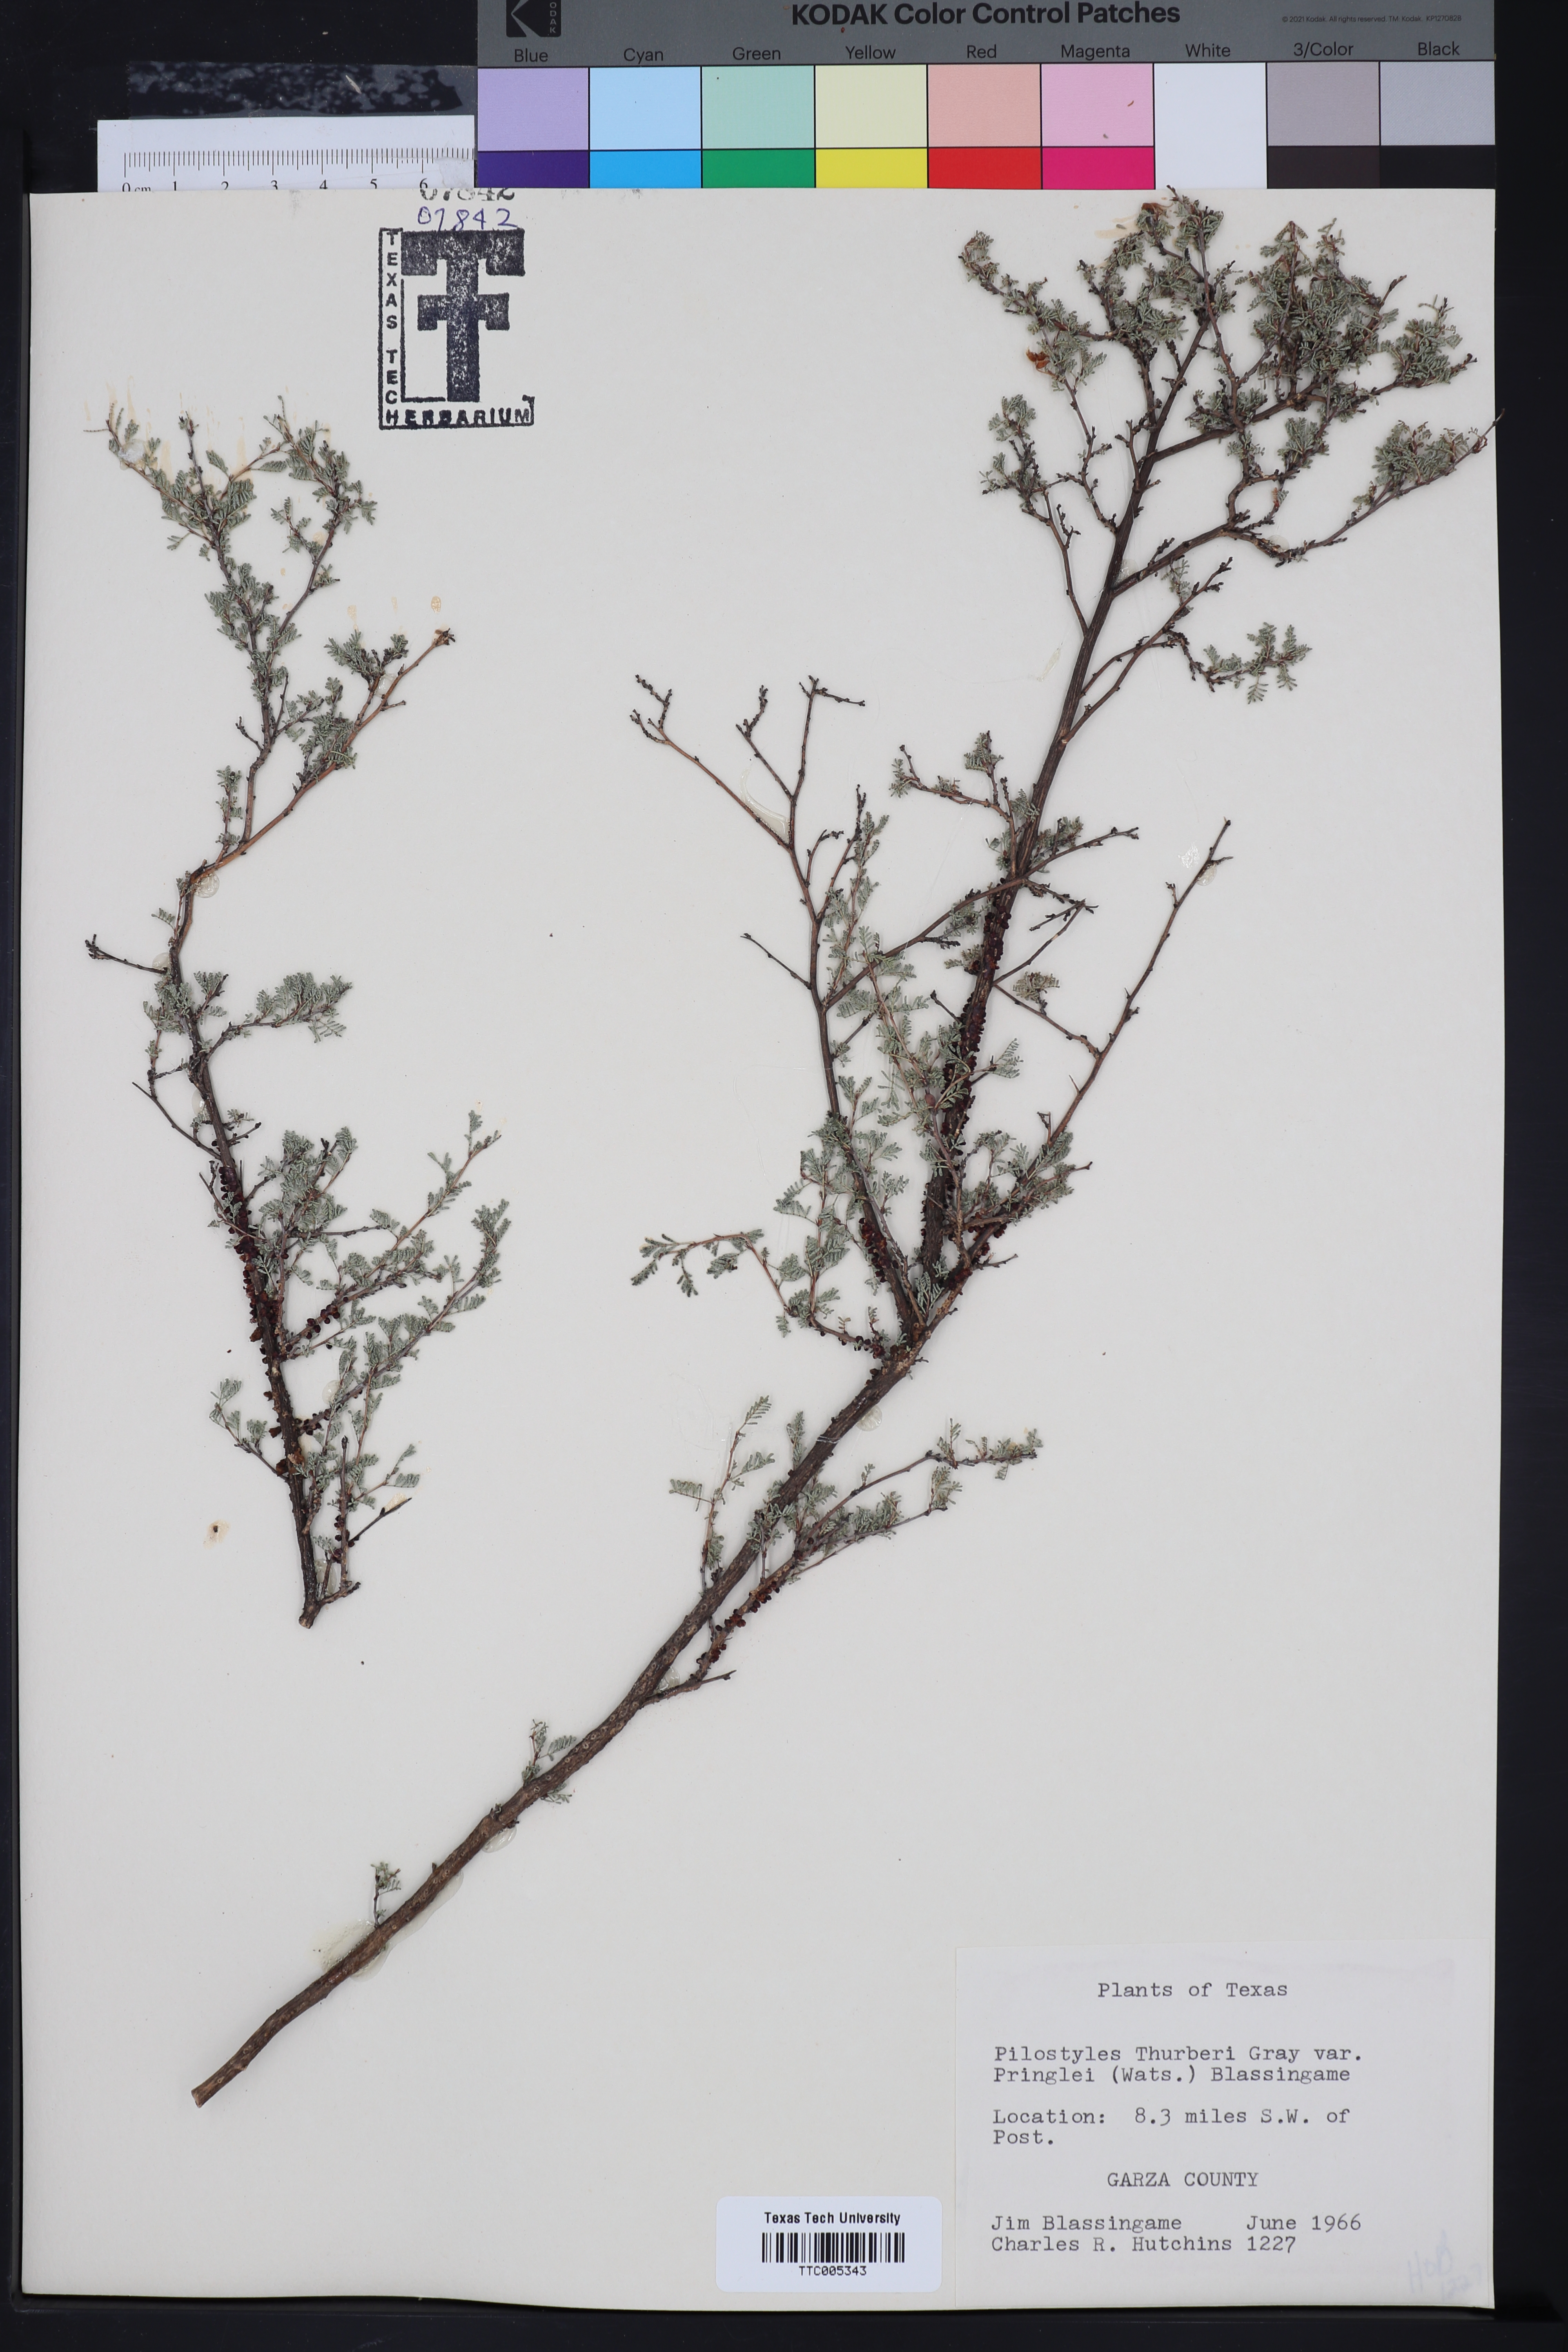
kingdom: Plantae
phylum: Tracheophyta
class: Magnoliopsida
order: Cucurbitales
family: Apodanthaceae
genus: Pilostyles
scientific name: Pilostyles thurberi
